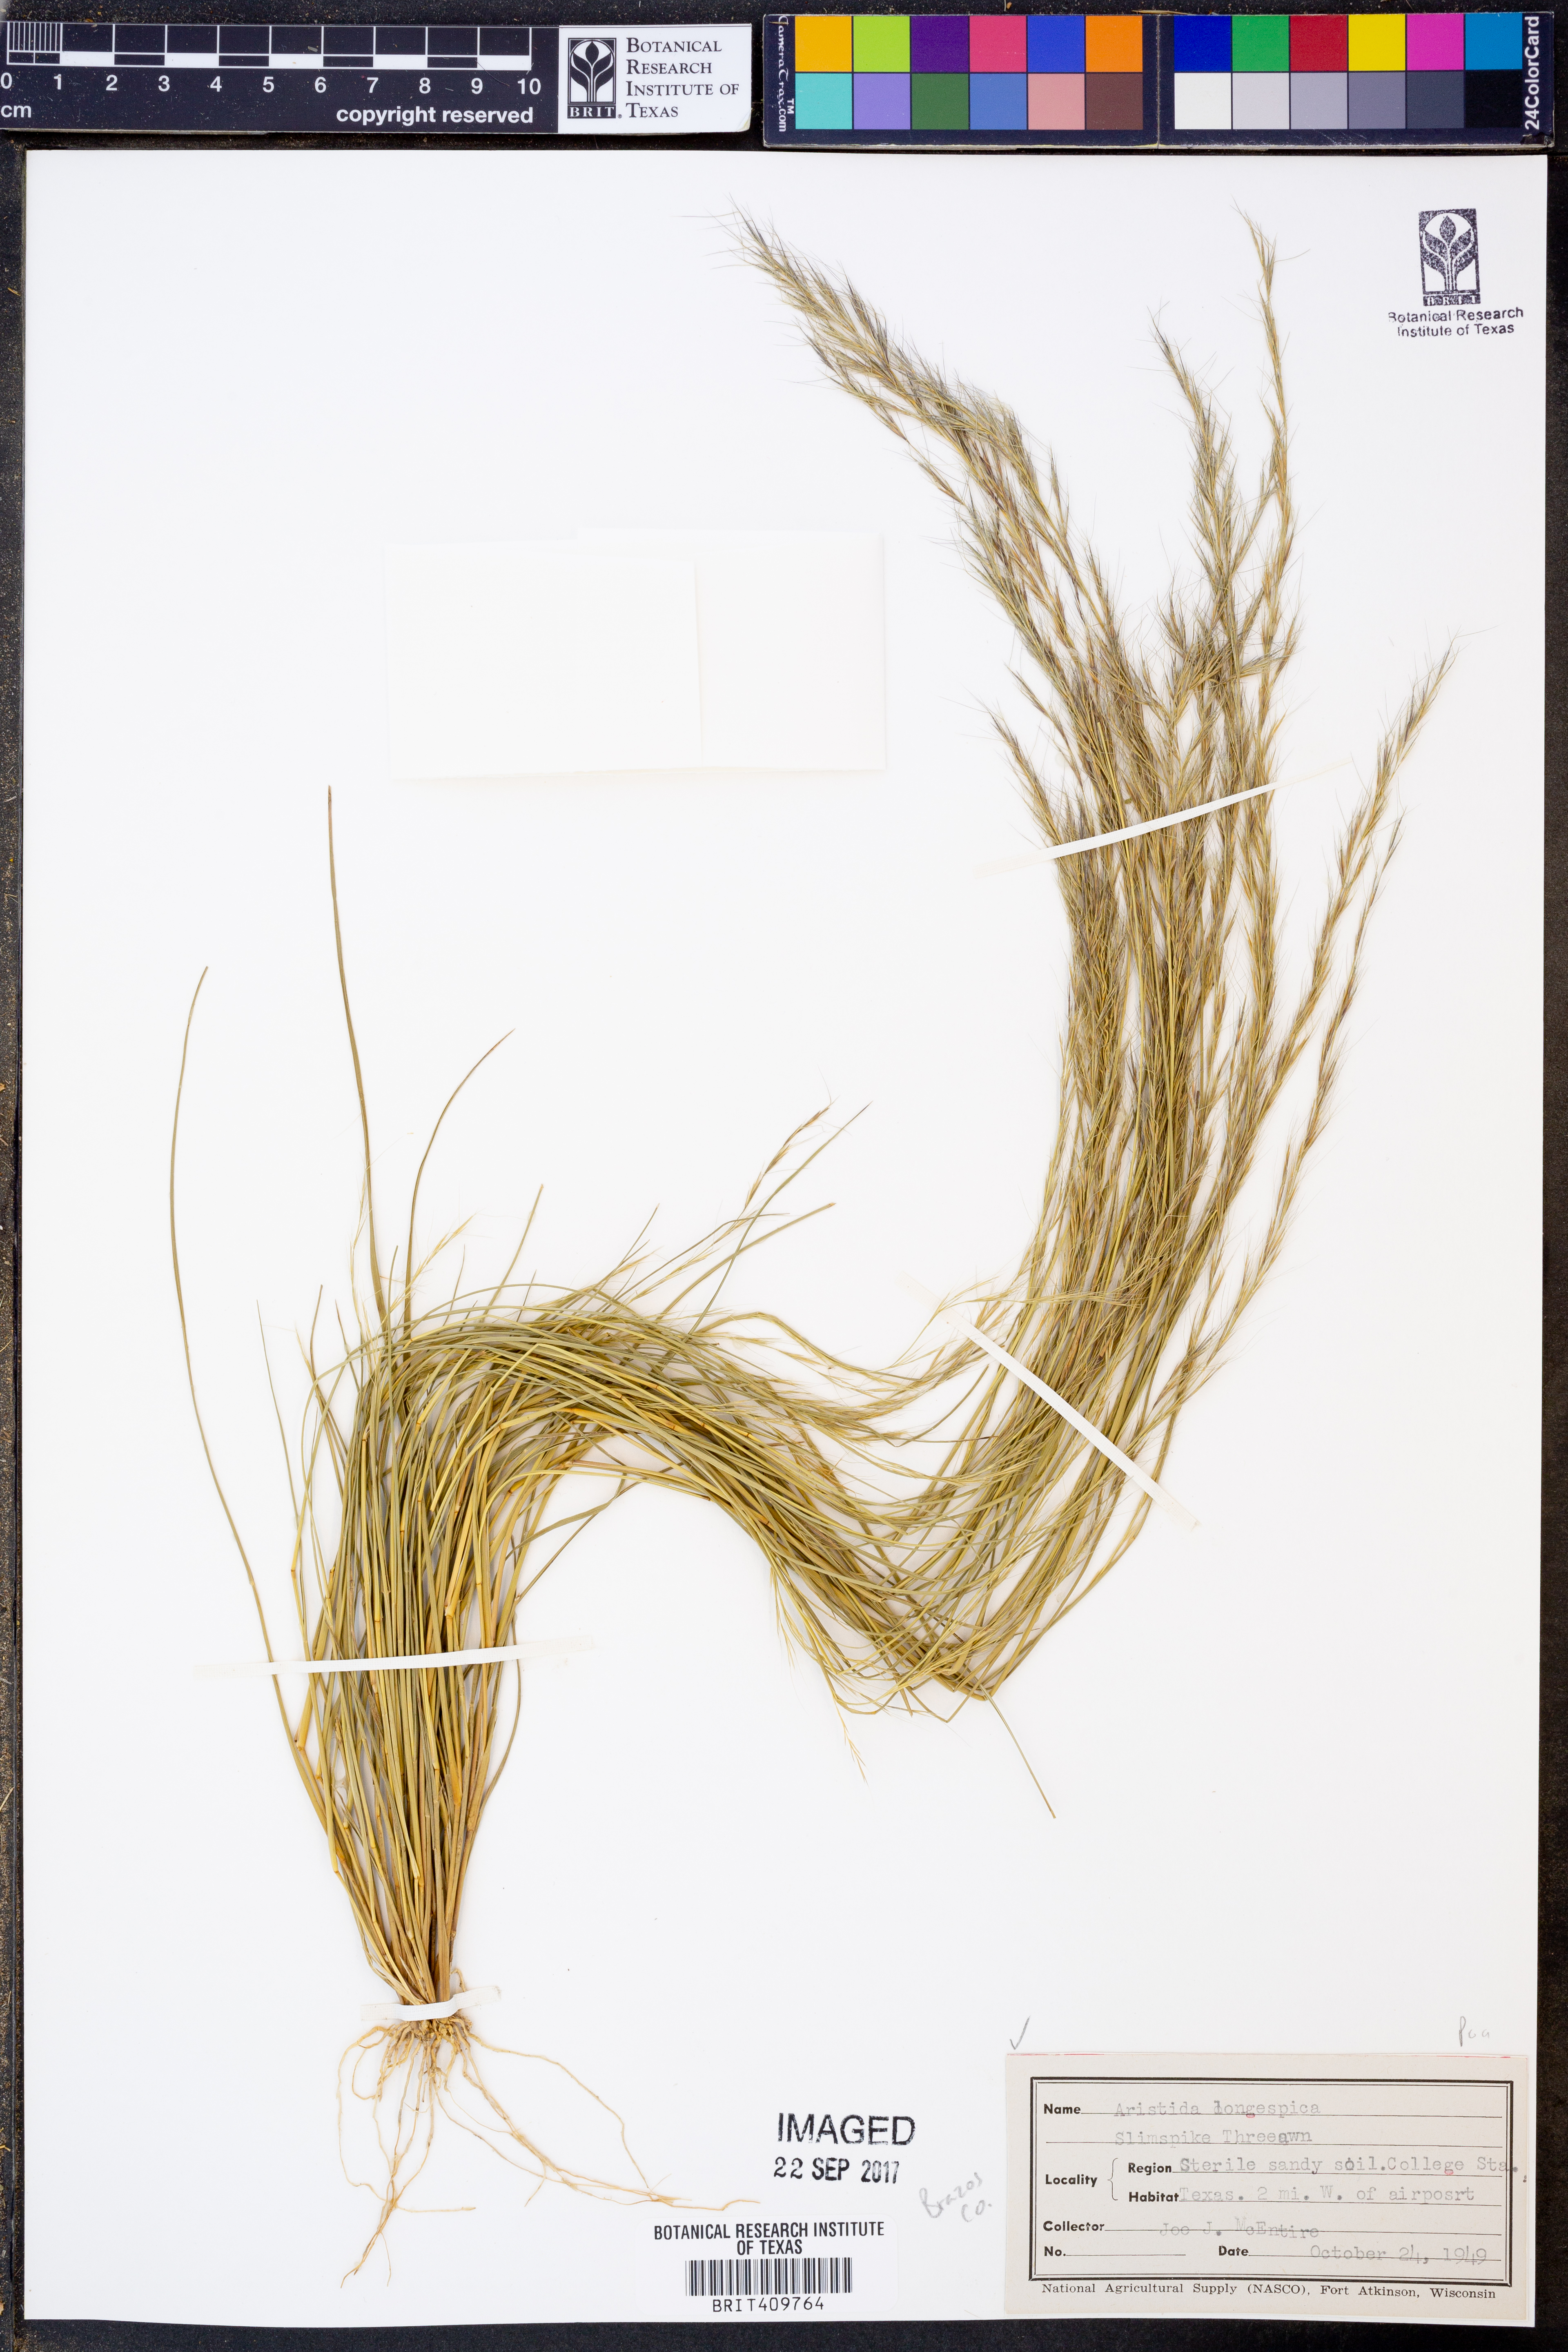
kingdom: Plantae
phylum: Tracheophyta
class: Liliopsida
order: Poales
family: Poaceae
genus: Aristida
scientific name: Aristida longespica
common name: Long-spiked triple-awned grass
